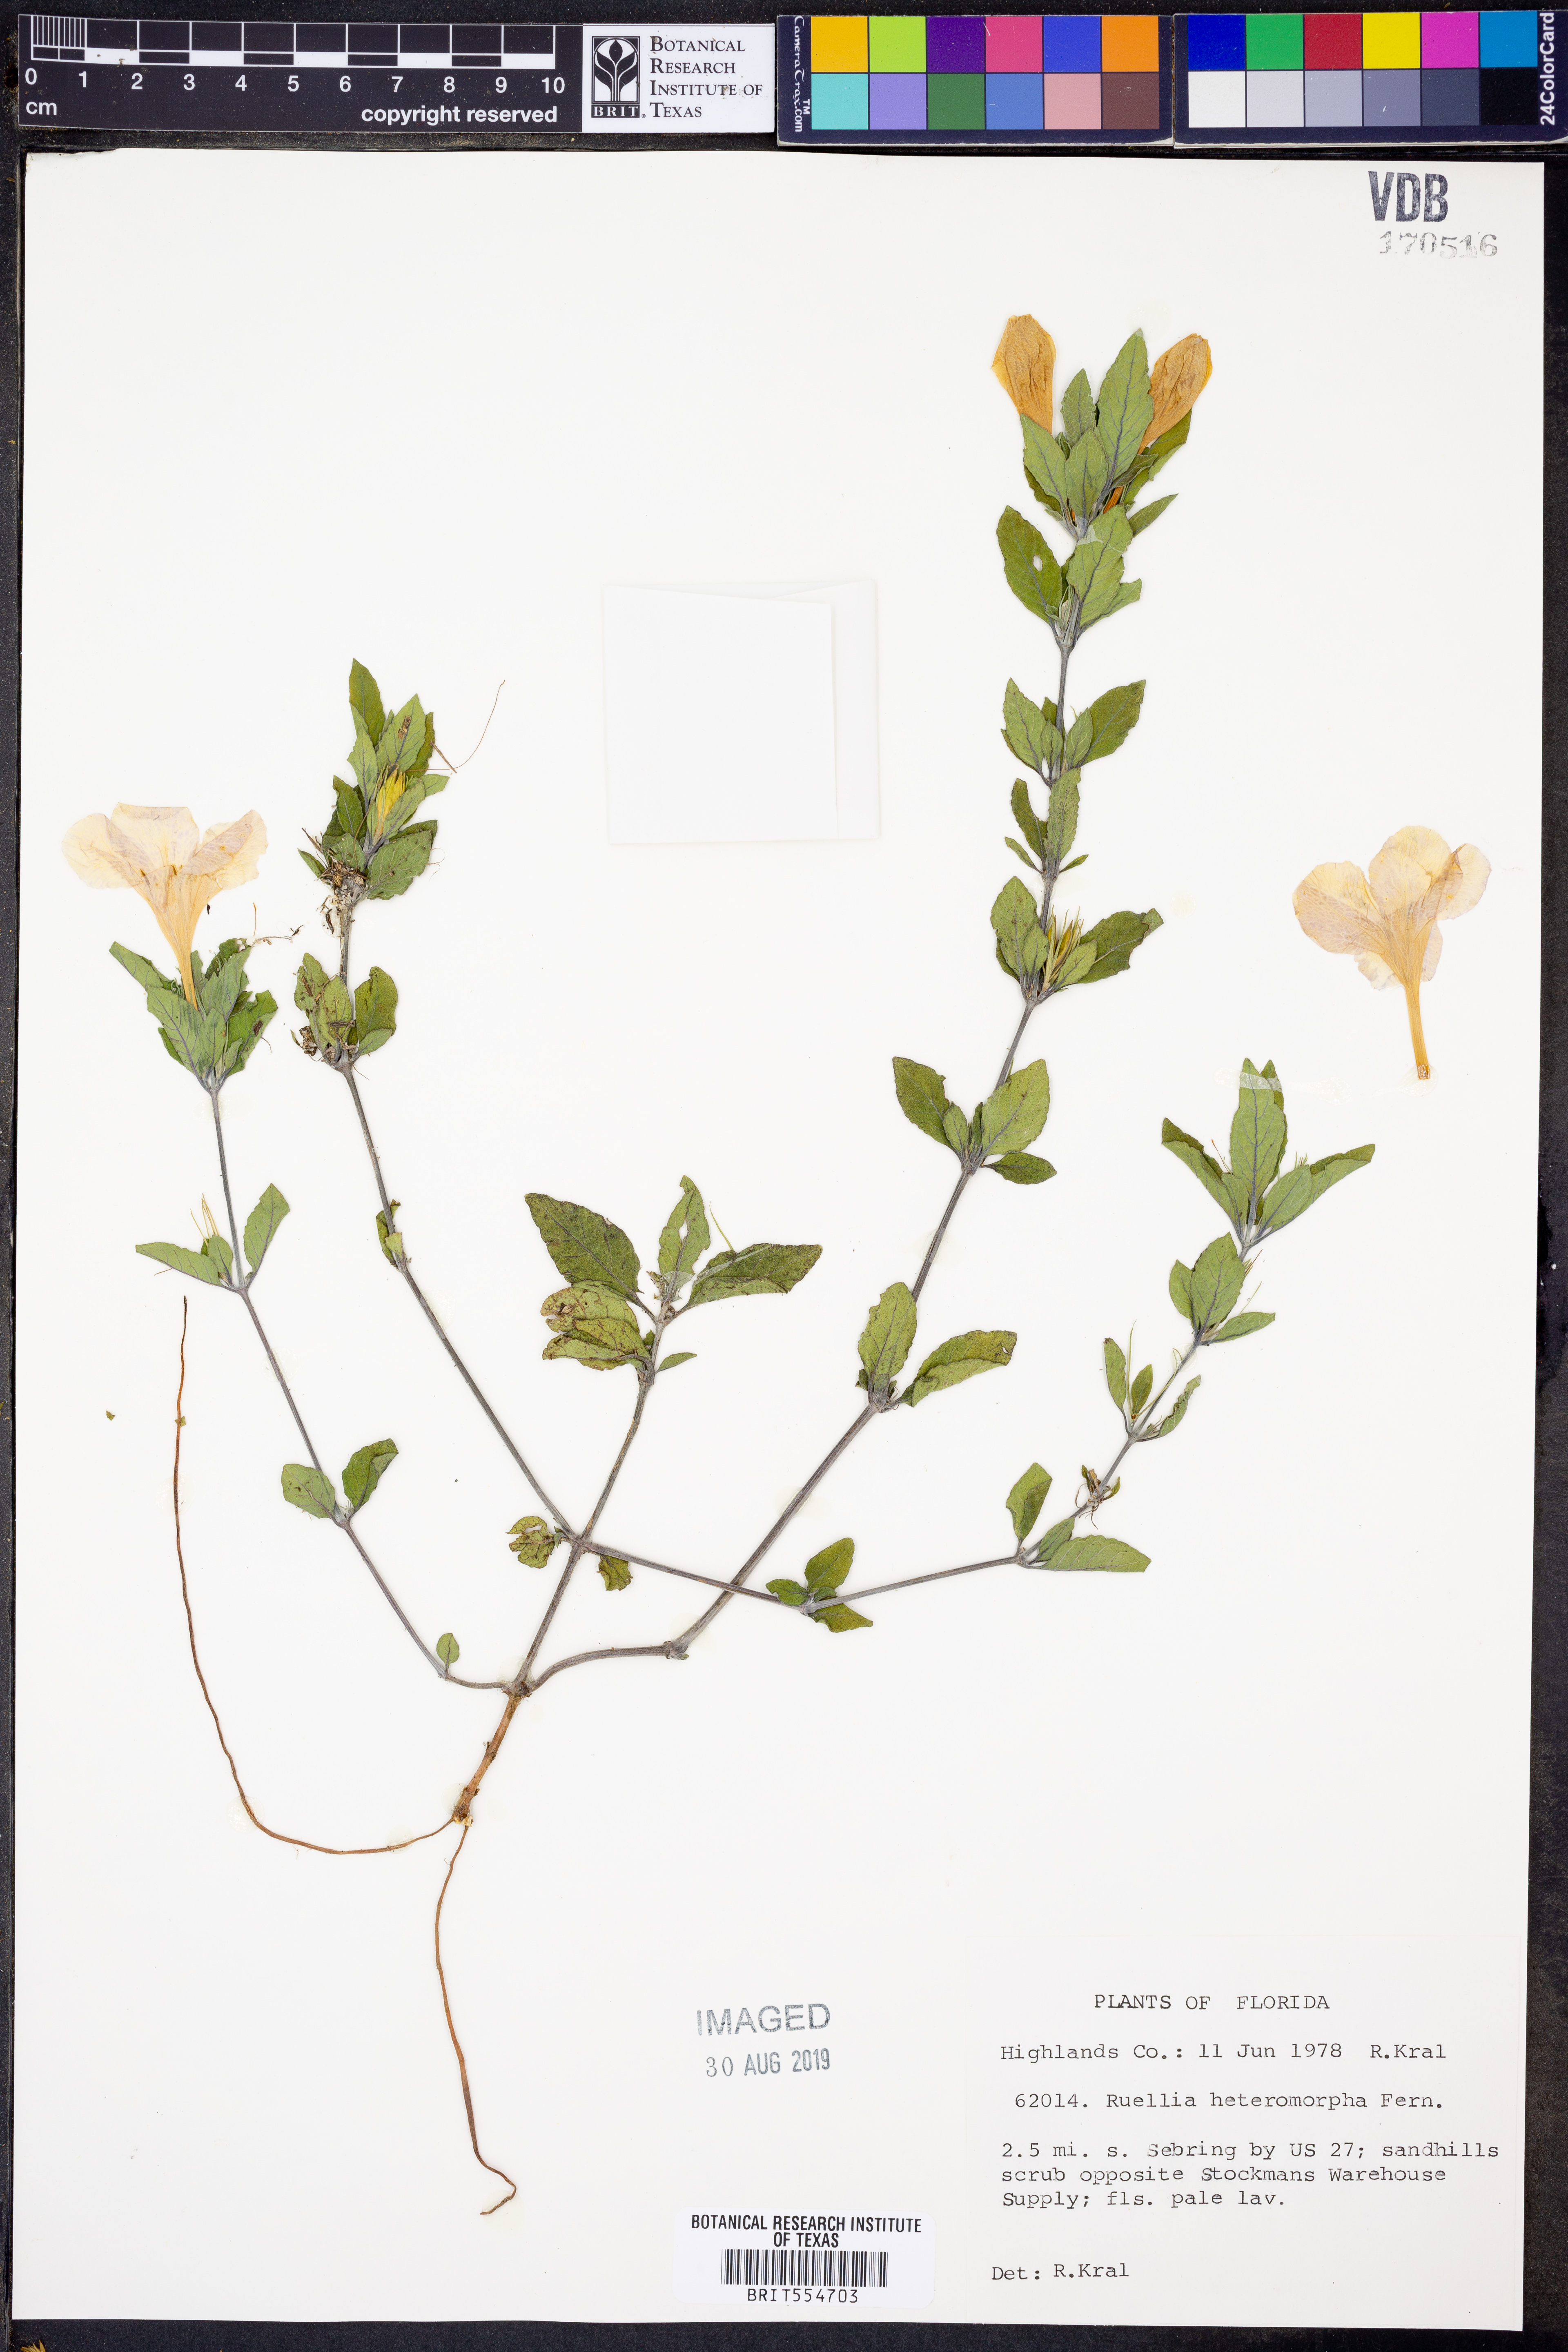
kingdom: Plantae
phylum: Tracheophyta
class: Magnoliopsida
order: Lamiales
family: Acanthaceae
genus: Ruellia
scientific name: Ruellia caroliniensis
